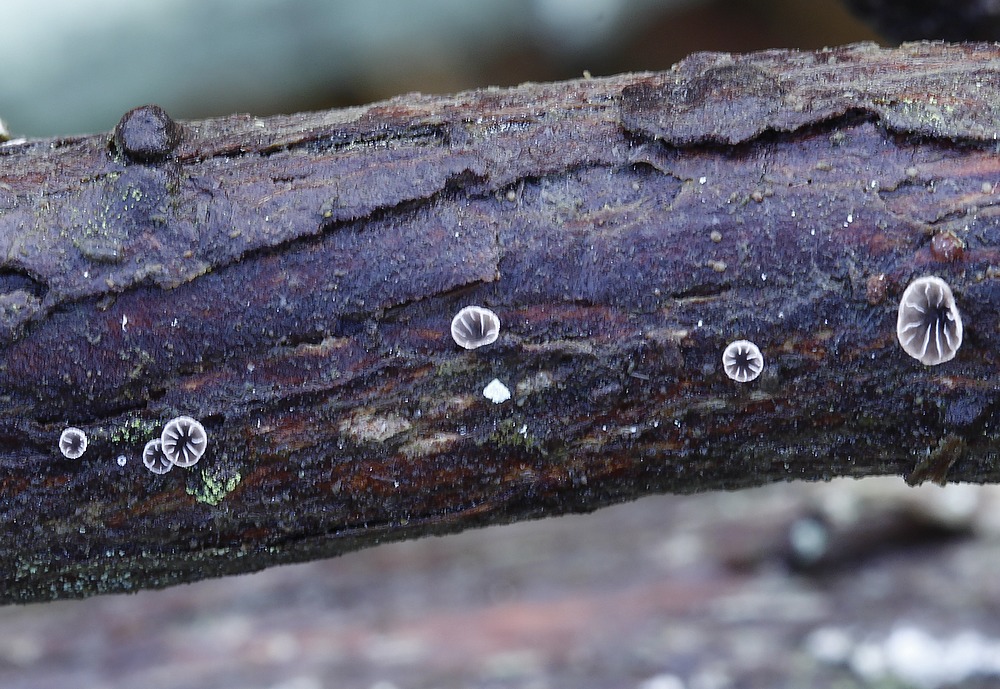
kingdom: Fungi
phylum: Basidiomycota
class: Agaricomycetes
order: Agaricales
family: Pleurotaceae
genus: Resupinatus
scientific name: Resupinatus hausknechtii
